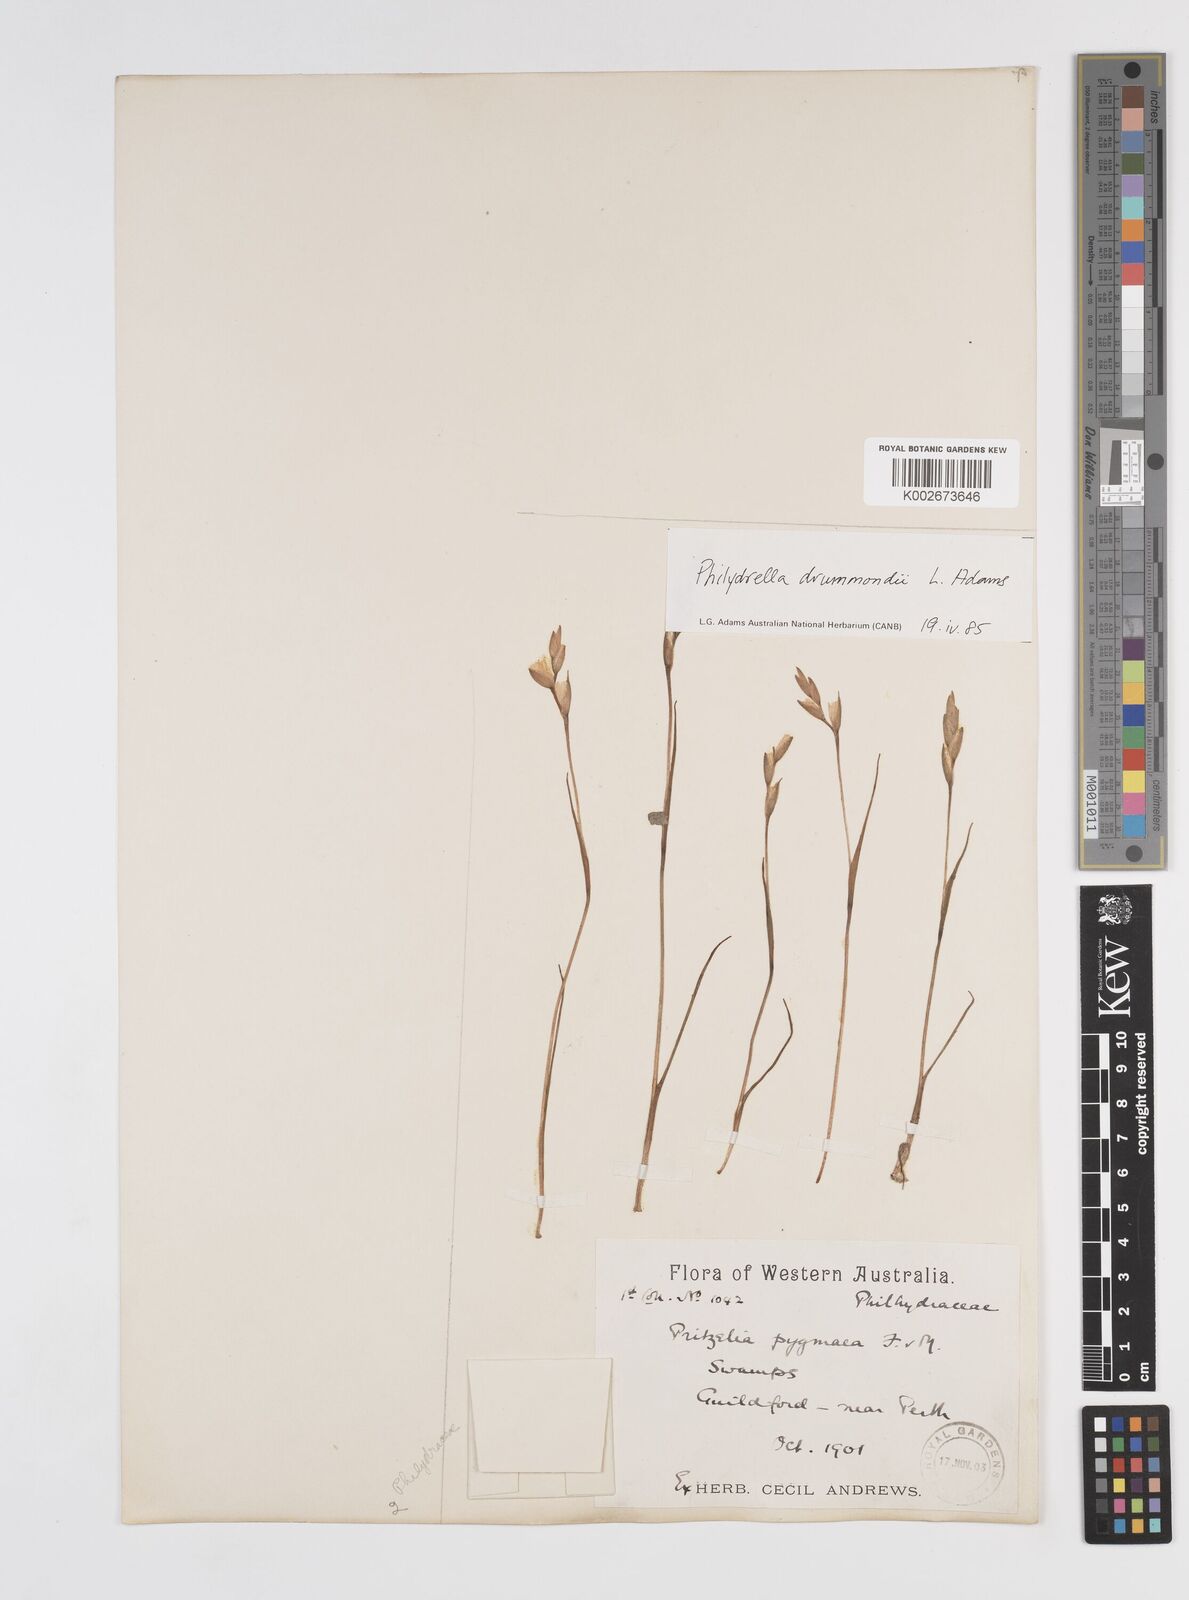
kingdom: Plantae
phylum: Tracheophyta
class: Liliopsida
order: Commelinales
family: Philydraceae
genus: Philydrella
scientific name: Philydrella drummondii
